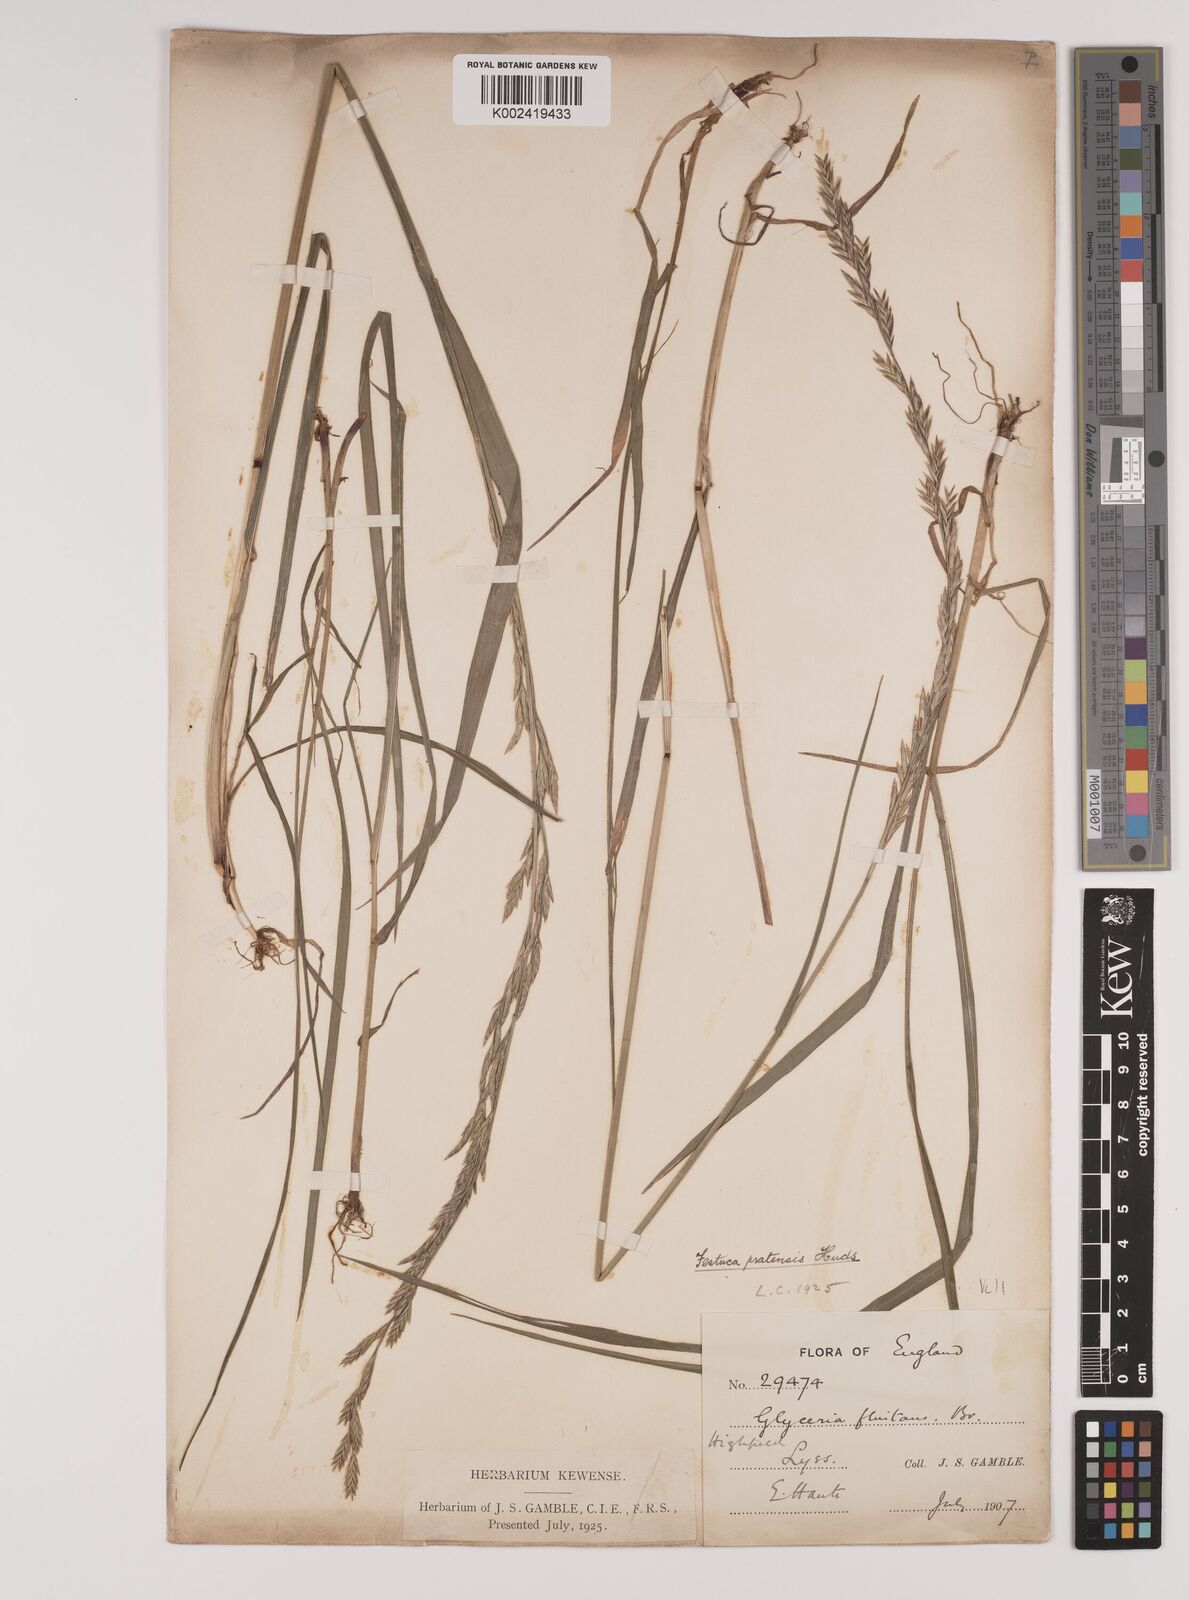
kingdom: Plantae
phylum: Tracheophyta
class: Liliopsida
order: Poales
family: Poaceae
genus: Lolium
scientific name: Lolium pratense
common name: Dover grass
